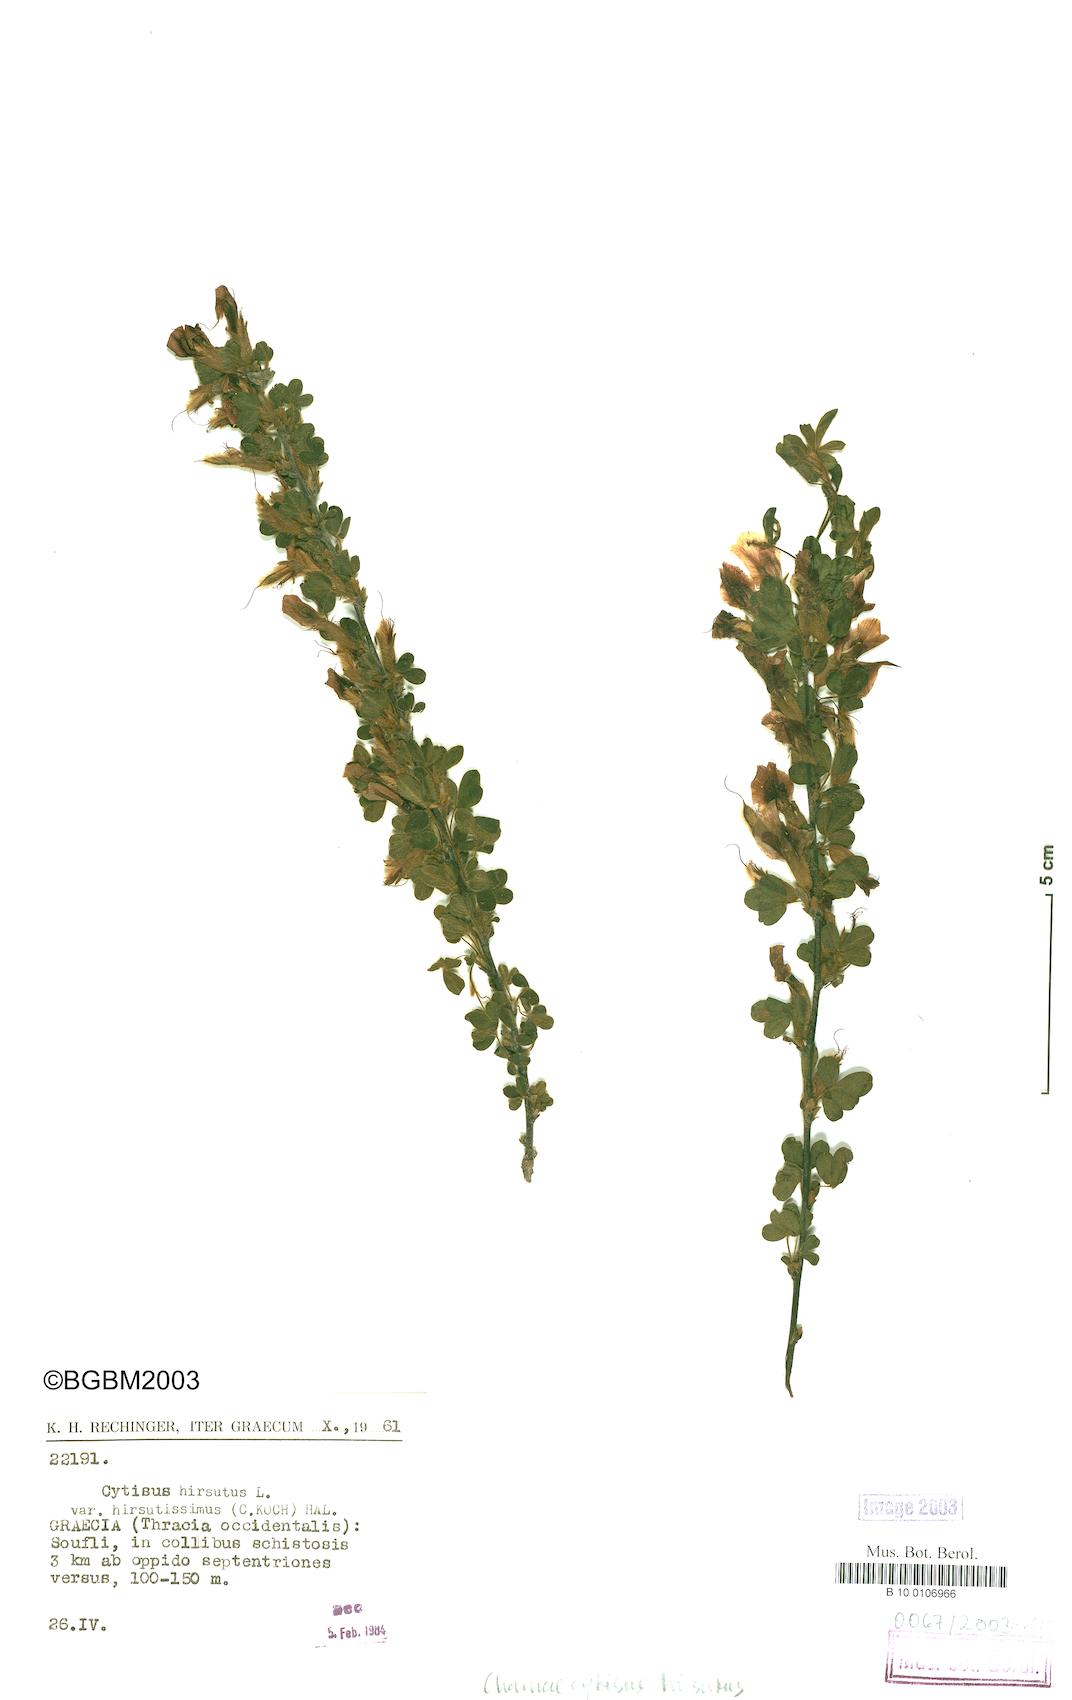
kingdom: Plantae
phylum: Tracheophyta
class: Magnoliopsida
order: Fabales
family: Fabaceae
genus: Chamaecytisus
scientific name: Chamaecytisus hirsutus
